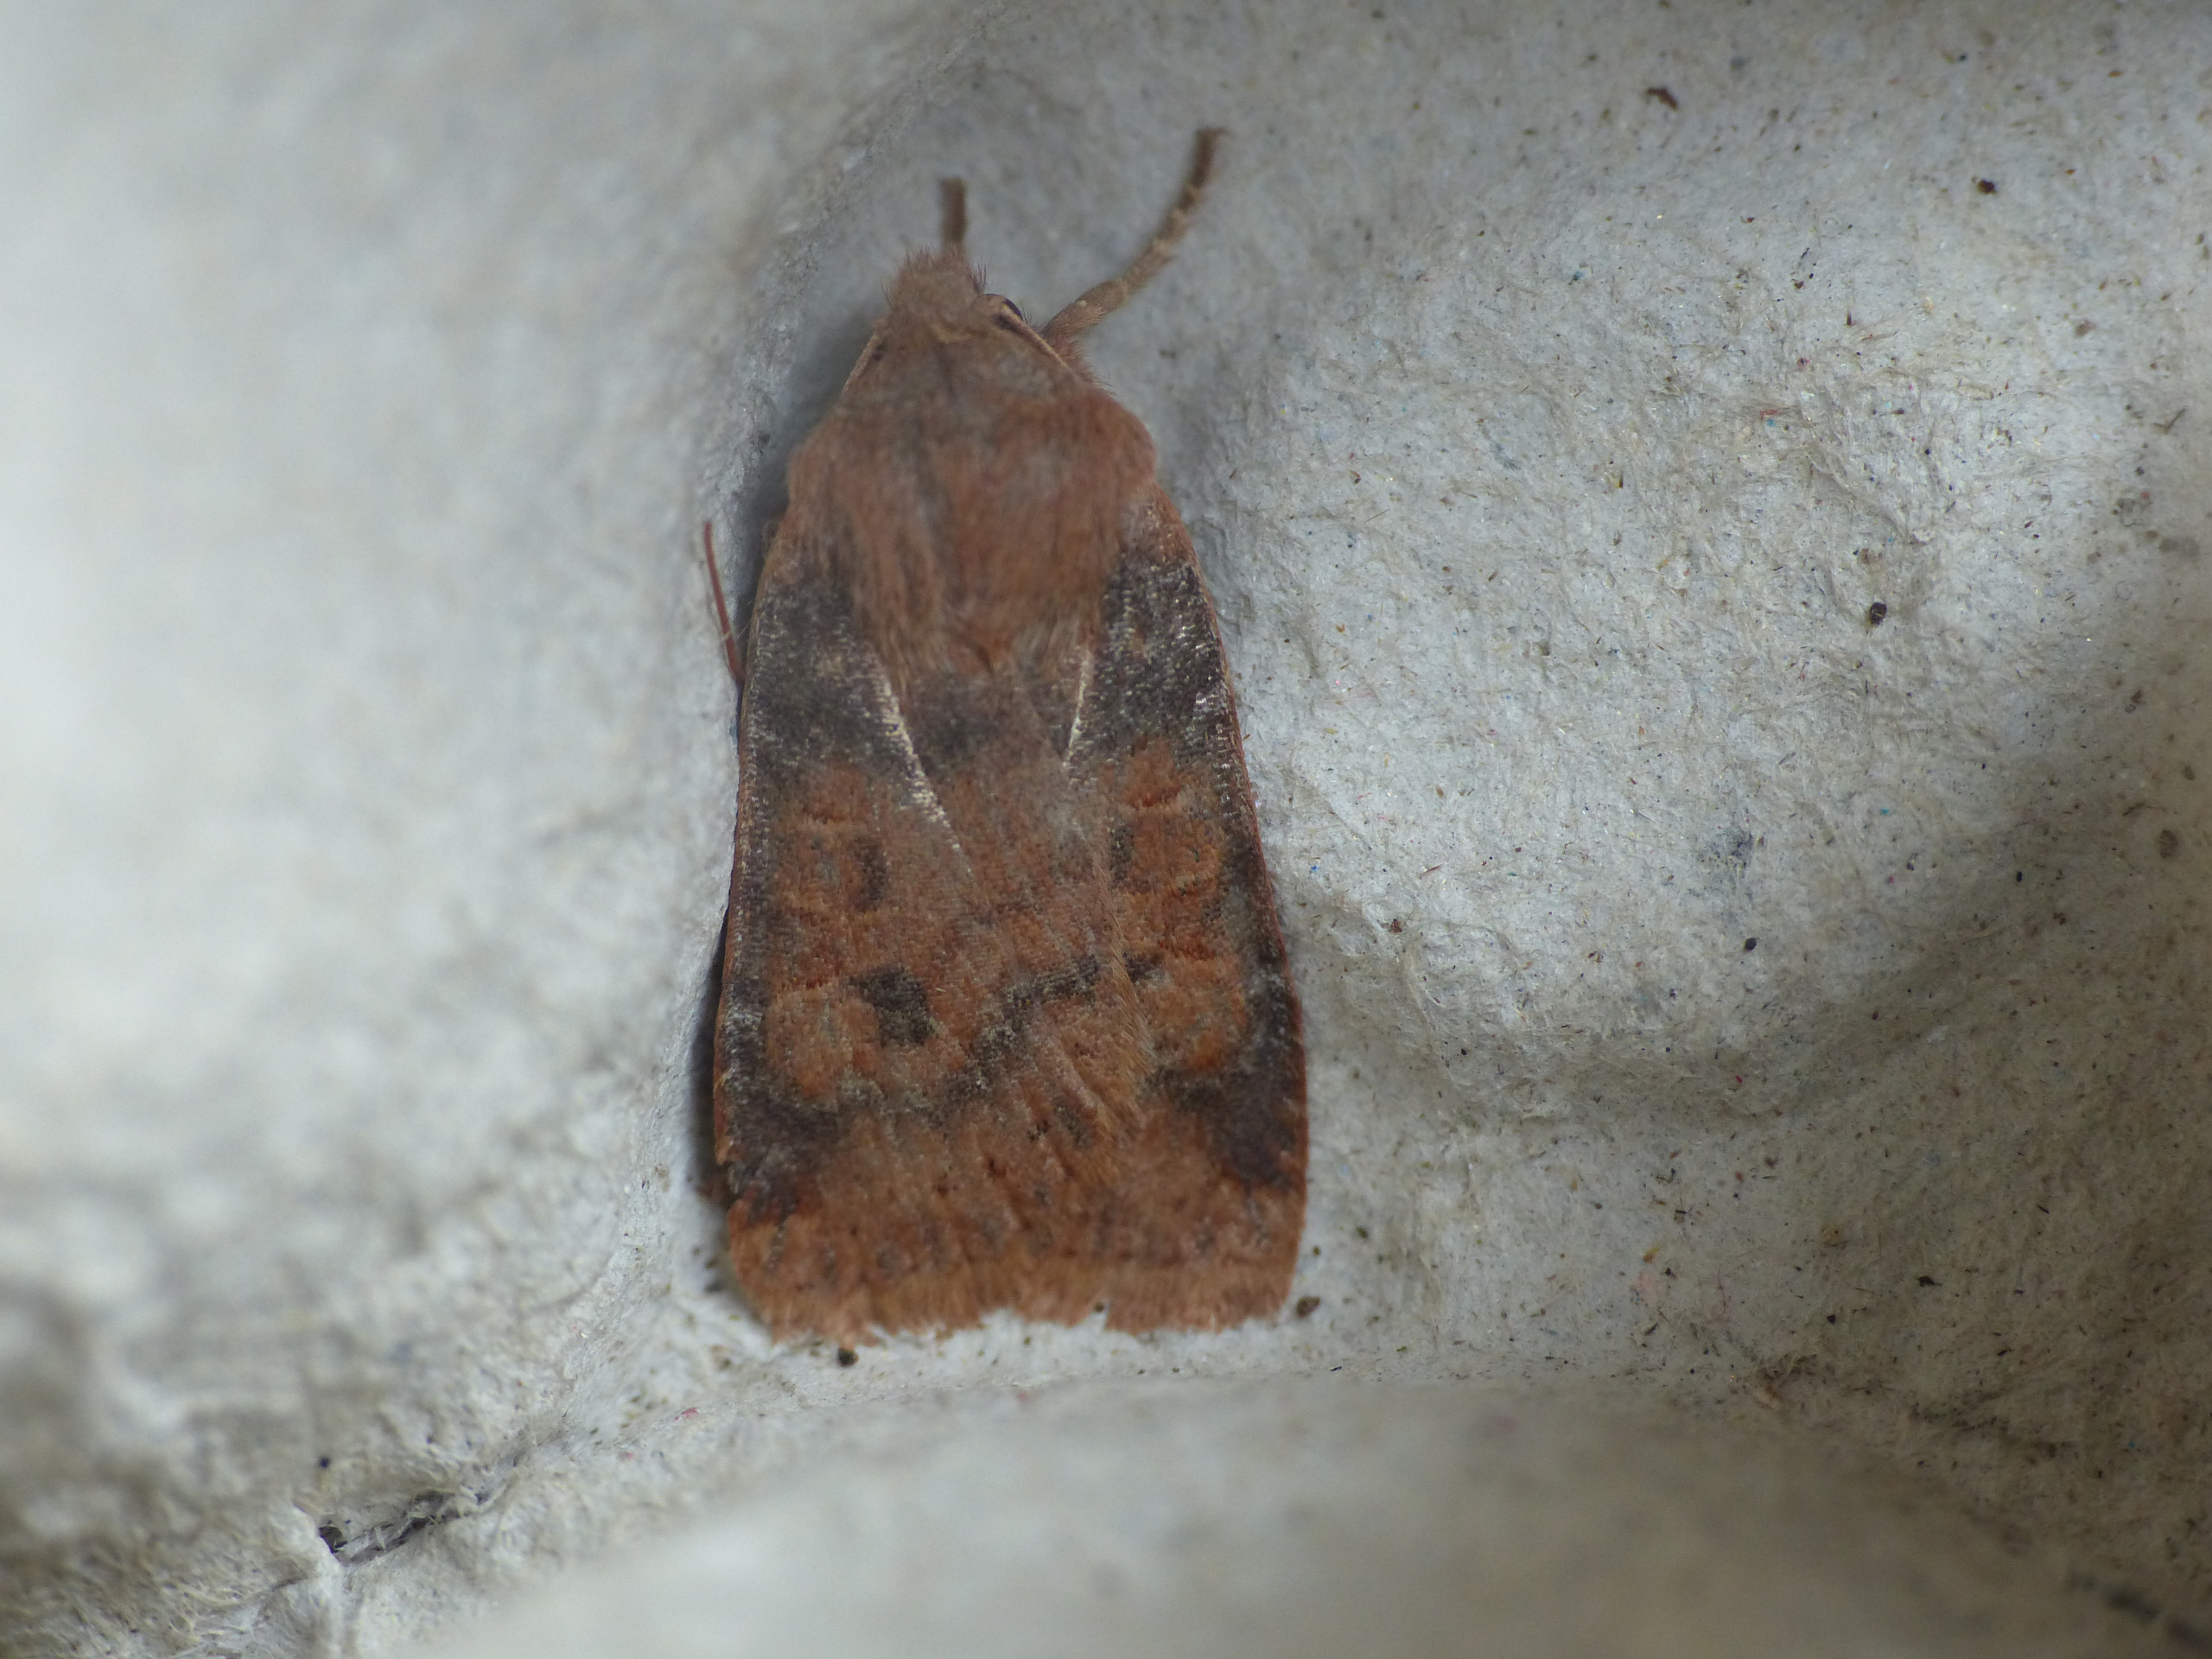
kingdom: Animalia
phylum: Arthropoda
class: Insecta
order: Lepidoptera
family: Noctuidae
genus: Conistra
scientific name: Conistra vaccinii
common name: Blåbærugle
